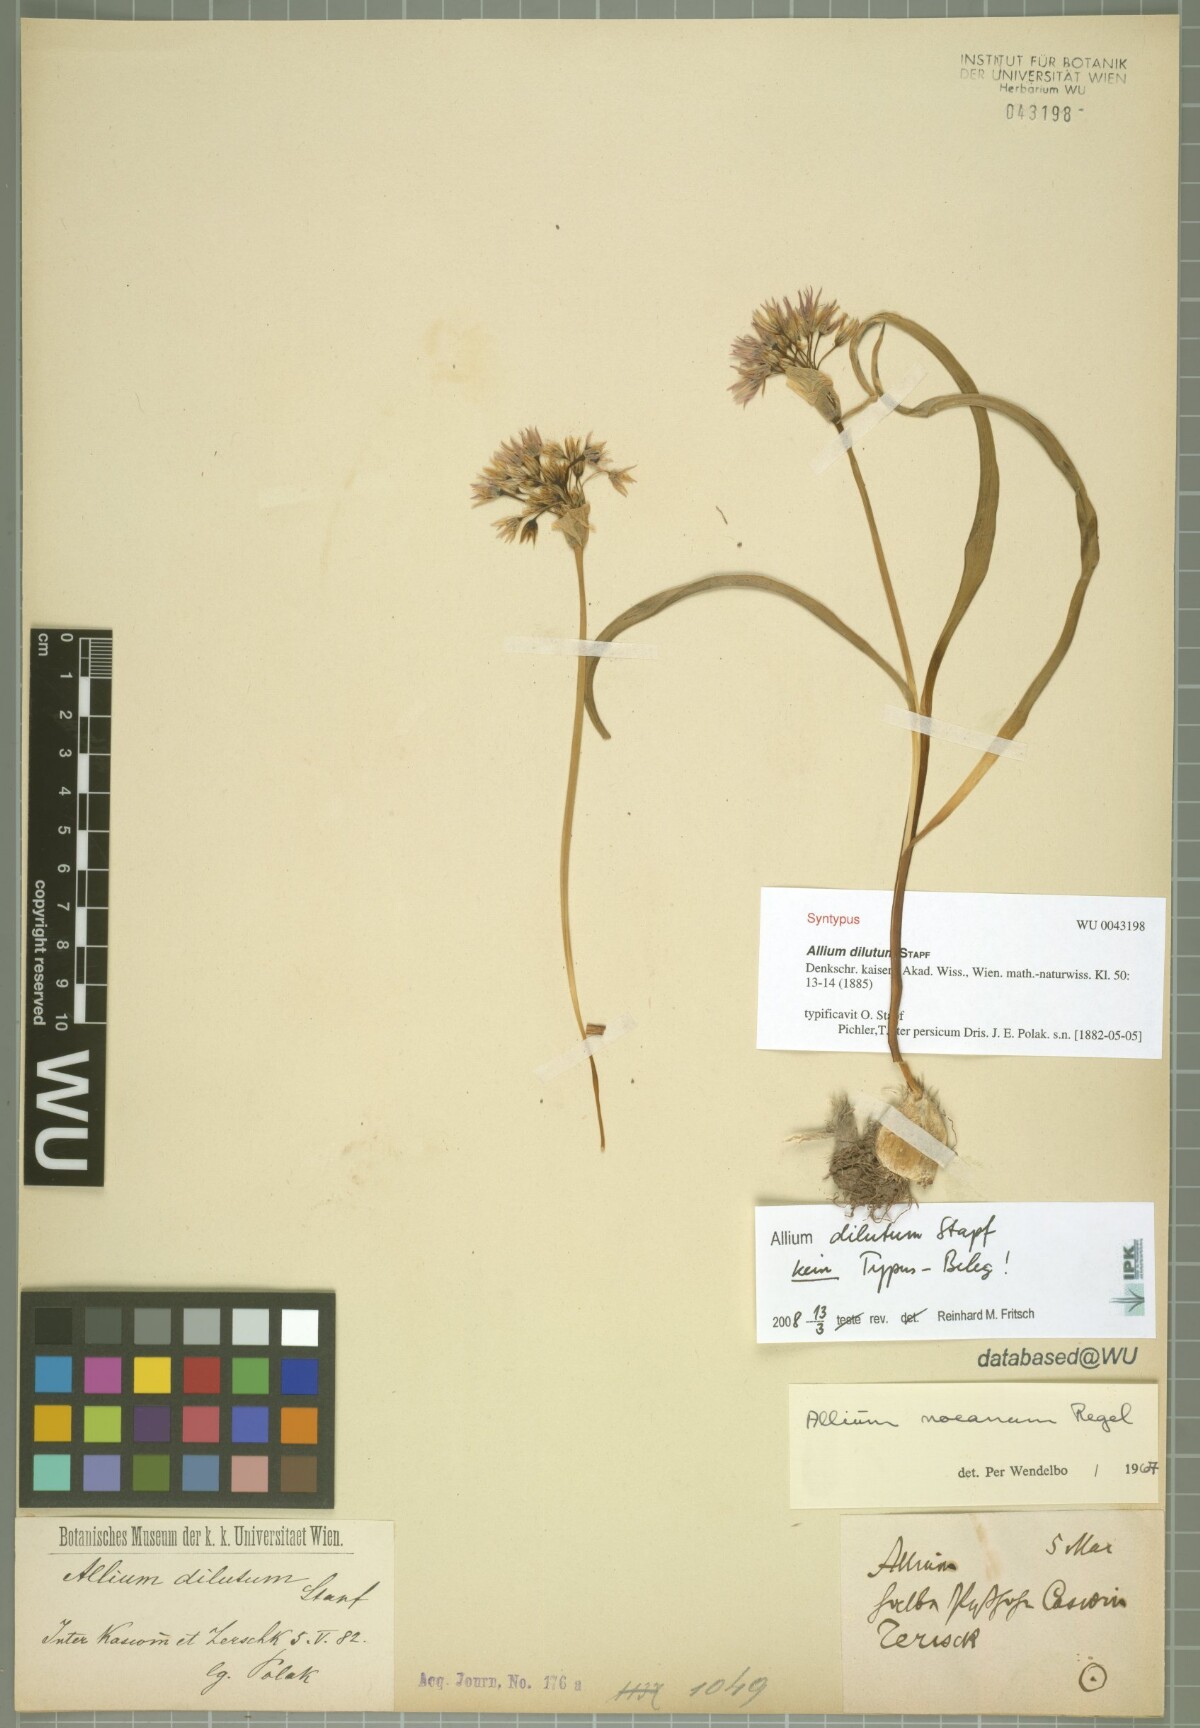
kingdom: Plantae
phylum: Tracheophyta
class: Liliopsida
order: Asparagales
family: Amaryllidaceae
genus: Allium
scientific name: Allium noeanum
